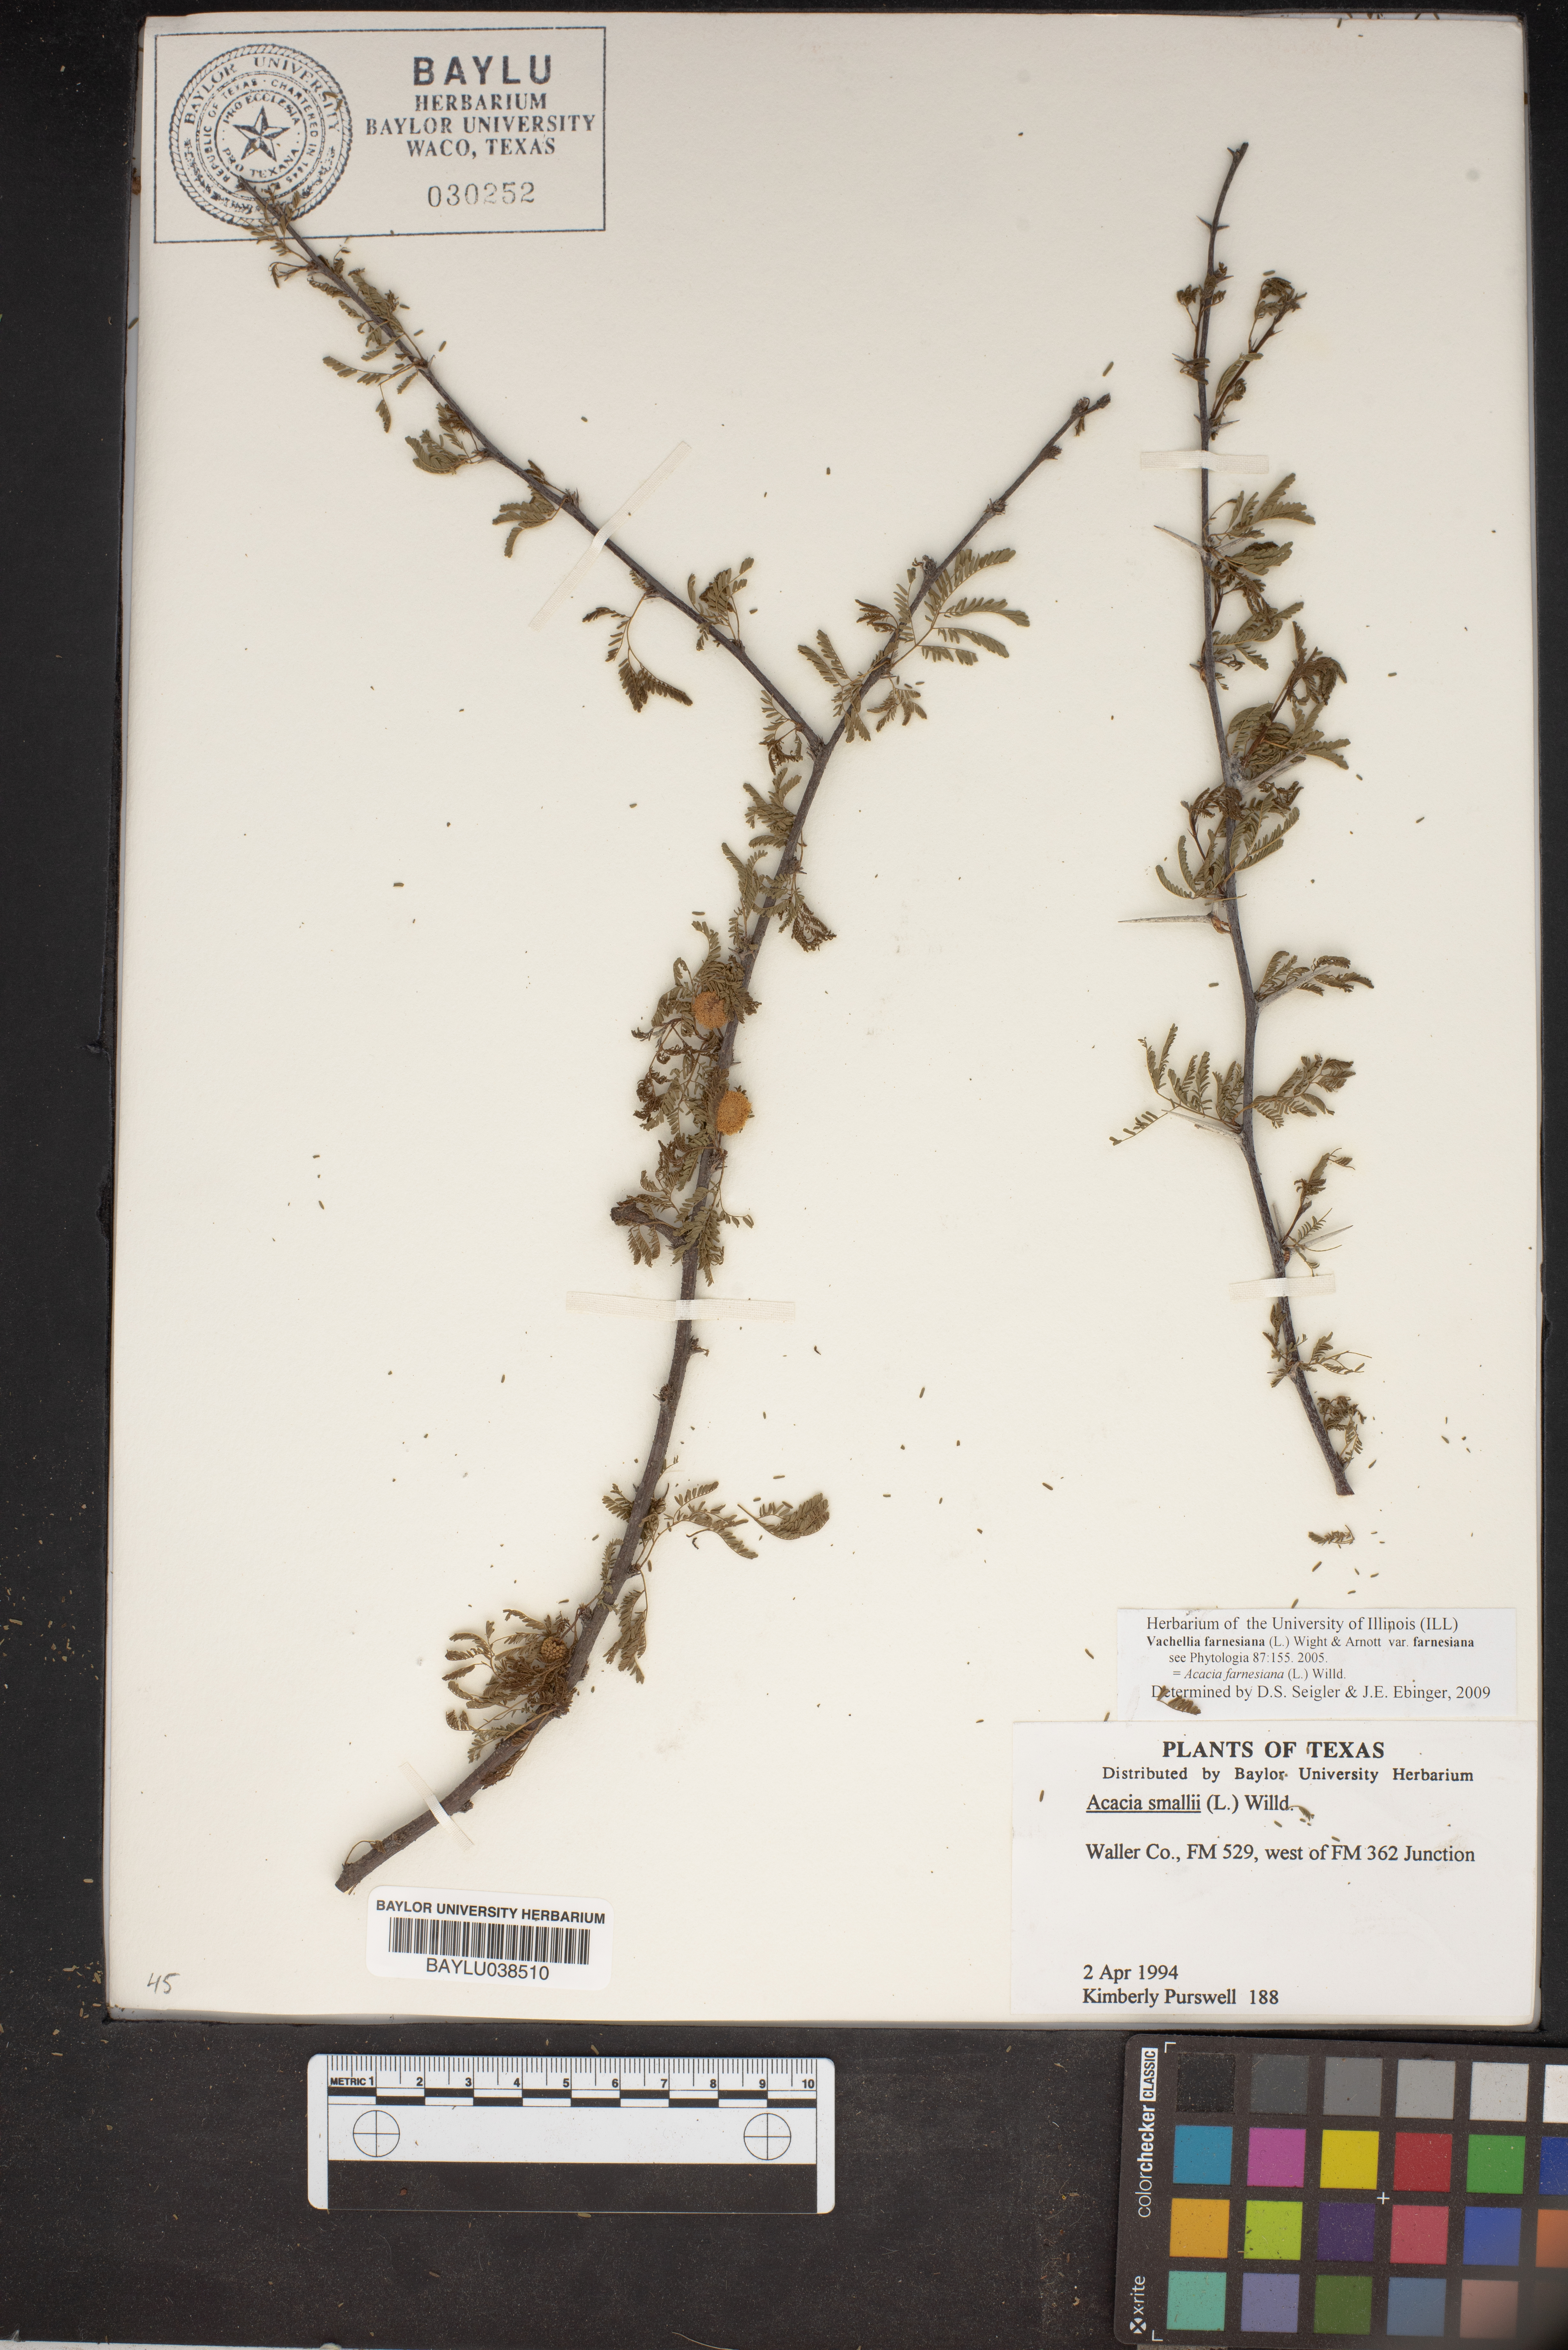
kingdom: Plantae
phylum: Tracheophyta
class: Magnoliopsida
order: Fabales
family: Fabaceae
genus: Vachellia
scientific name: Vachellia farnesiana
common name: Sweet acacia
